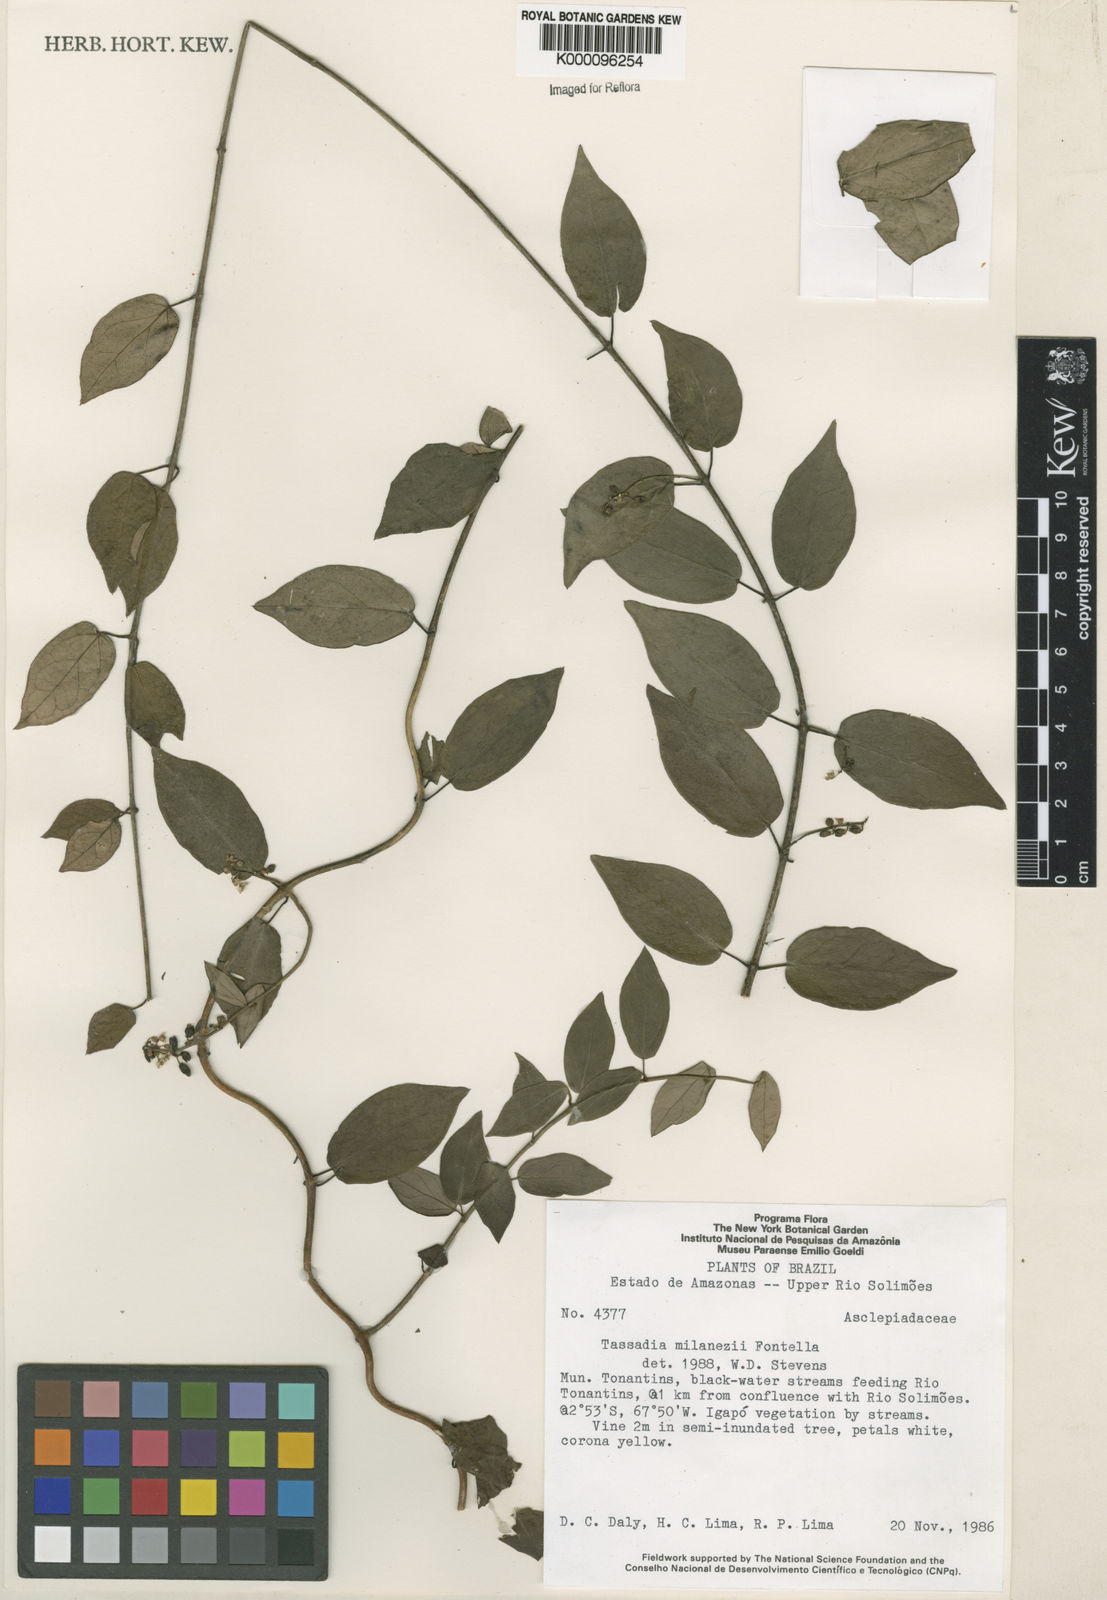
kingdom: Plantae
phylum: Tracheophyta
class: Magnoliopsida
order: Gentianales
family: Apocynaceae
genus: Tassadia
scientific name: Tassadia milanezii
